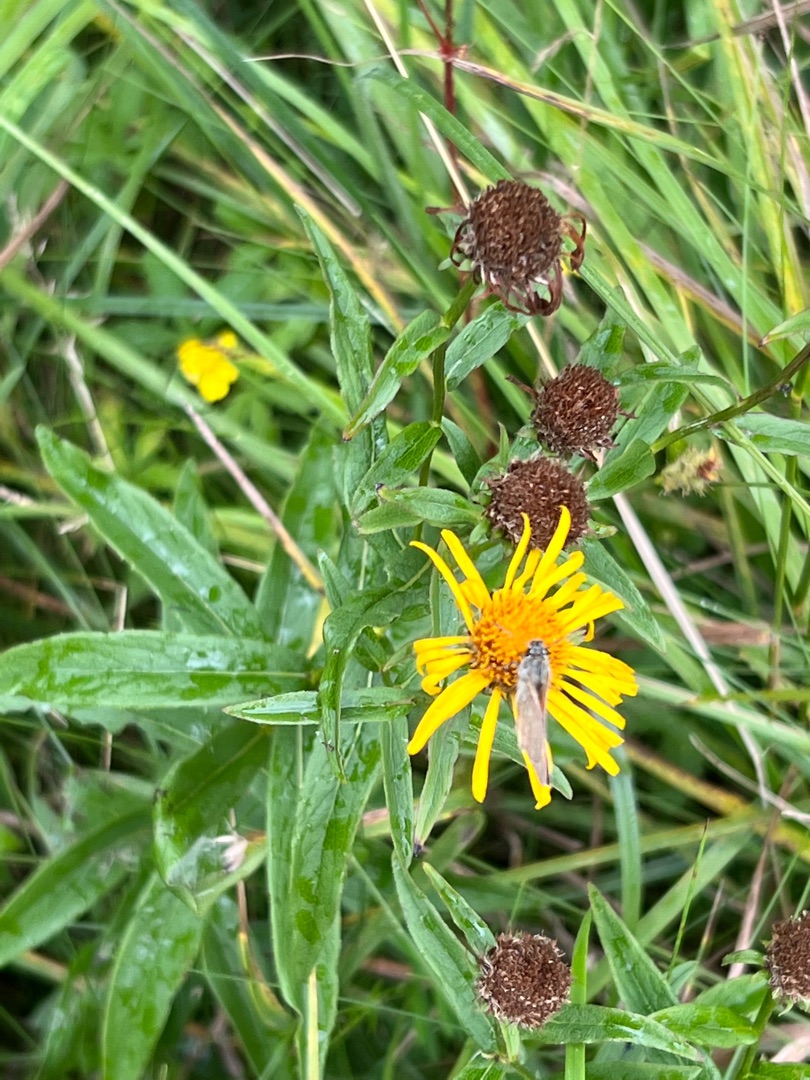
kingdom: Plantae
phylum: Tracheophyta
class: Magnoliopsida
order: Asterales
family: Asteraceae
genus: Pentanema
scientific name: Pentanema salicinum
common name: Pile-alant
